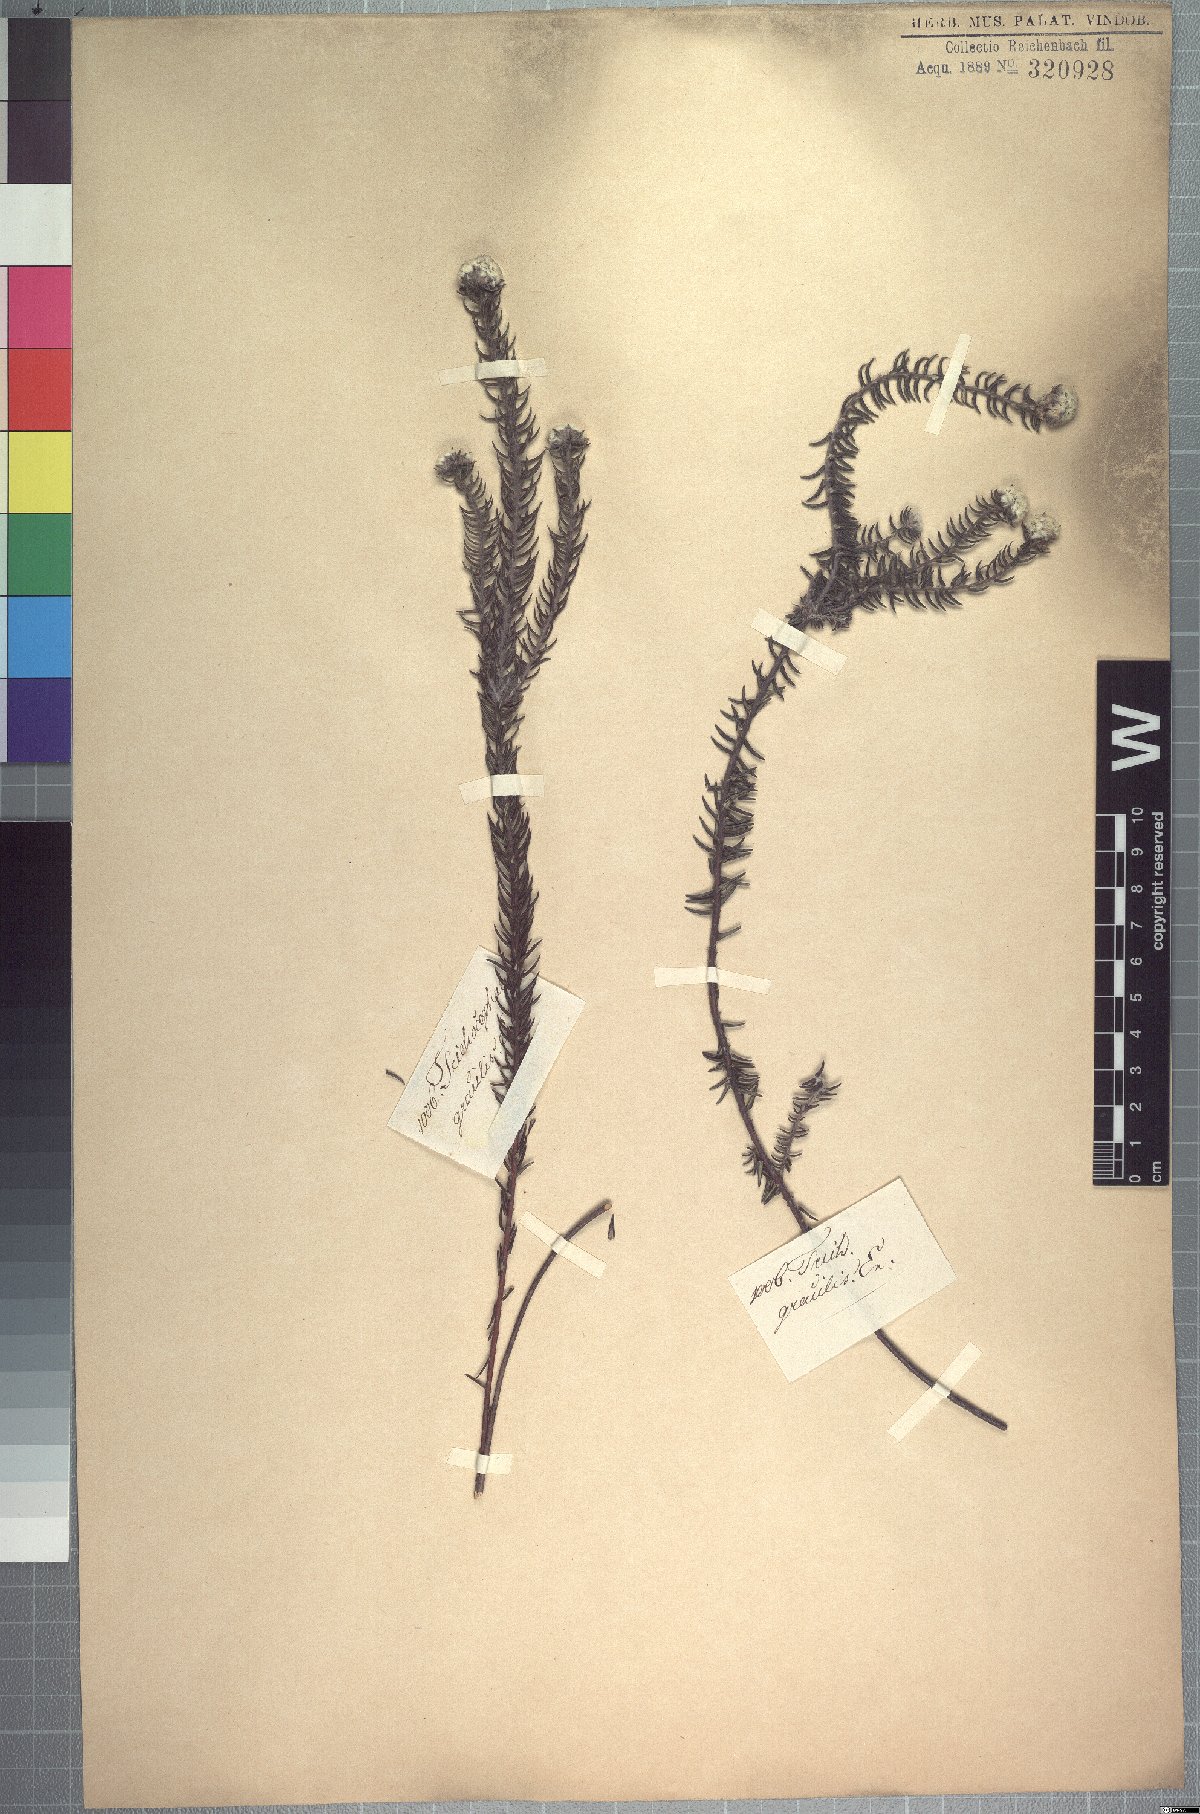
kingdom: Plantae
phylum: Tracheophyta
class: Magnoliopsida
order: Rosales
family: Rhamnaceae
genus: Phylica
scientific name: Phylica gracilis
